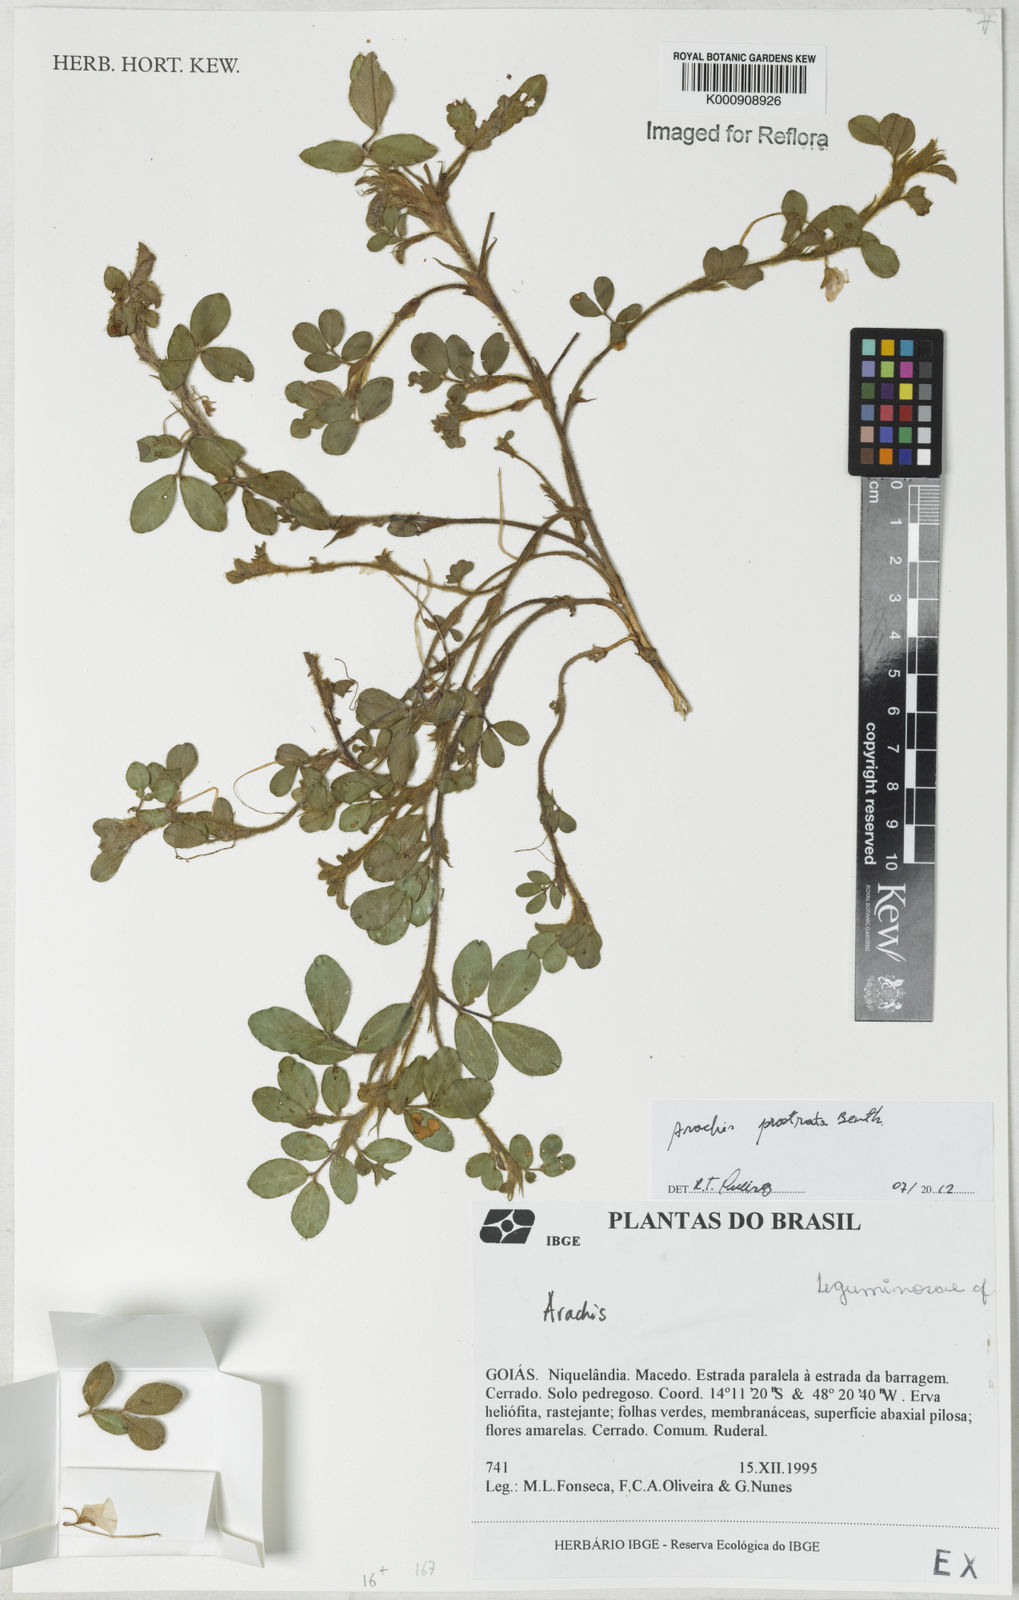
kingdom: Plantae
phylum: Tracheophyta
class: Magnoliopsida
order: Fabales
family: Fabaceae
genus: Arachis
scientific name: Arachis prostrata
